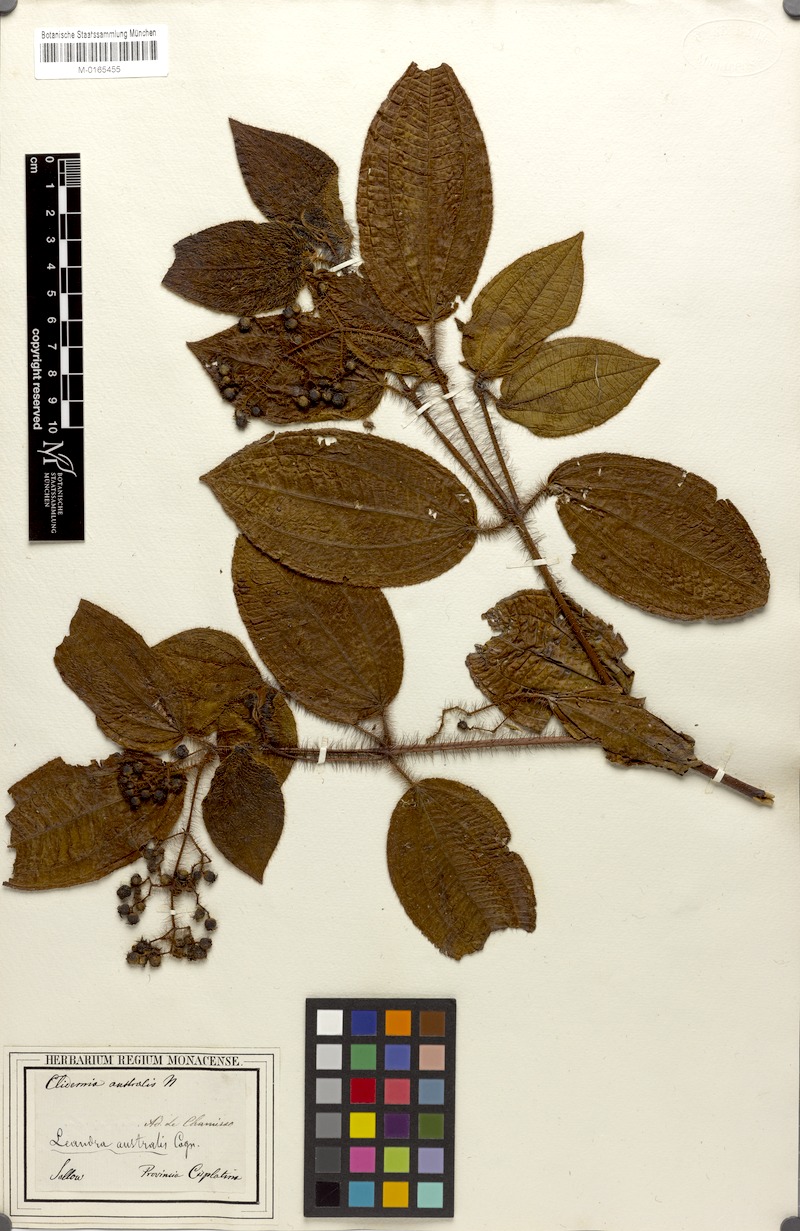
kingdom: Plantae
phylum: Tracheophyta
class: Magnoliopsida
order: Myrtales
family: Melastomataceae
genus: Miconia
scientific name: Miconia australis
